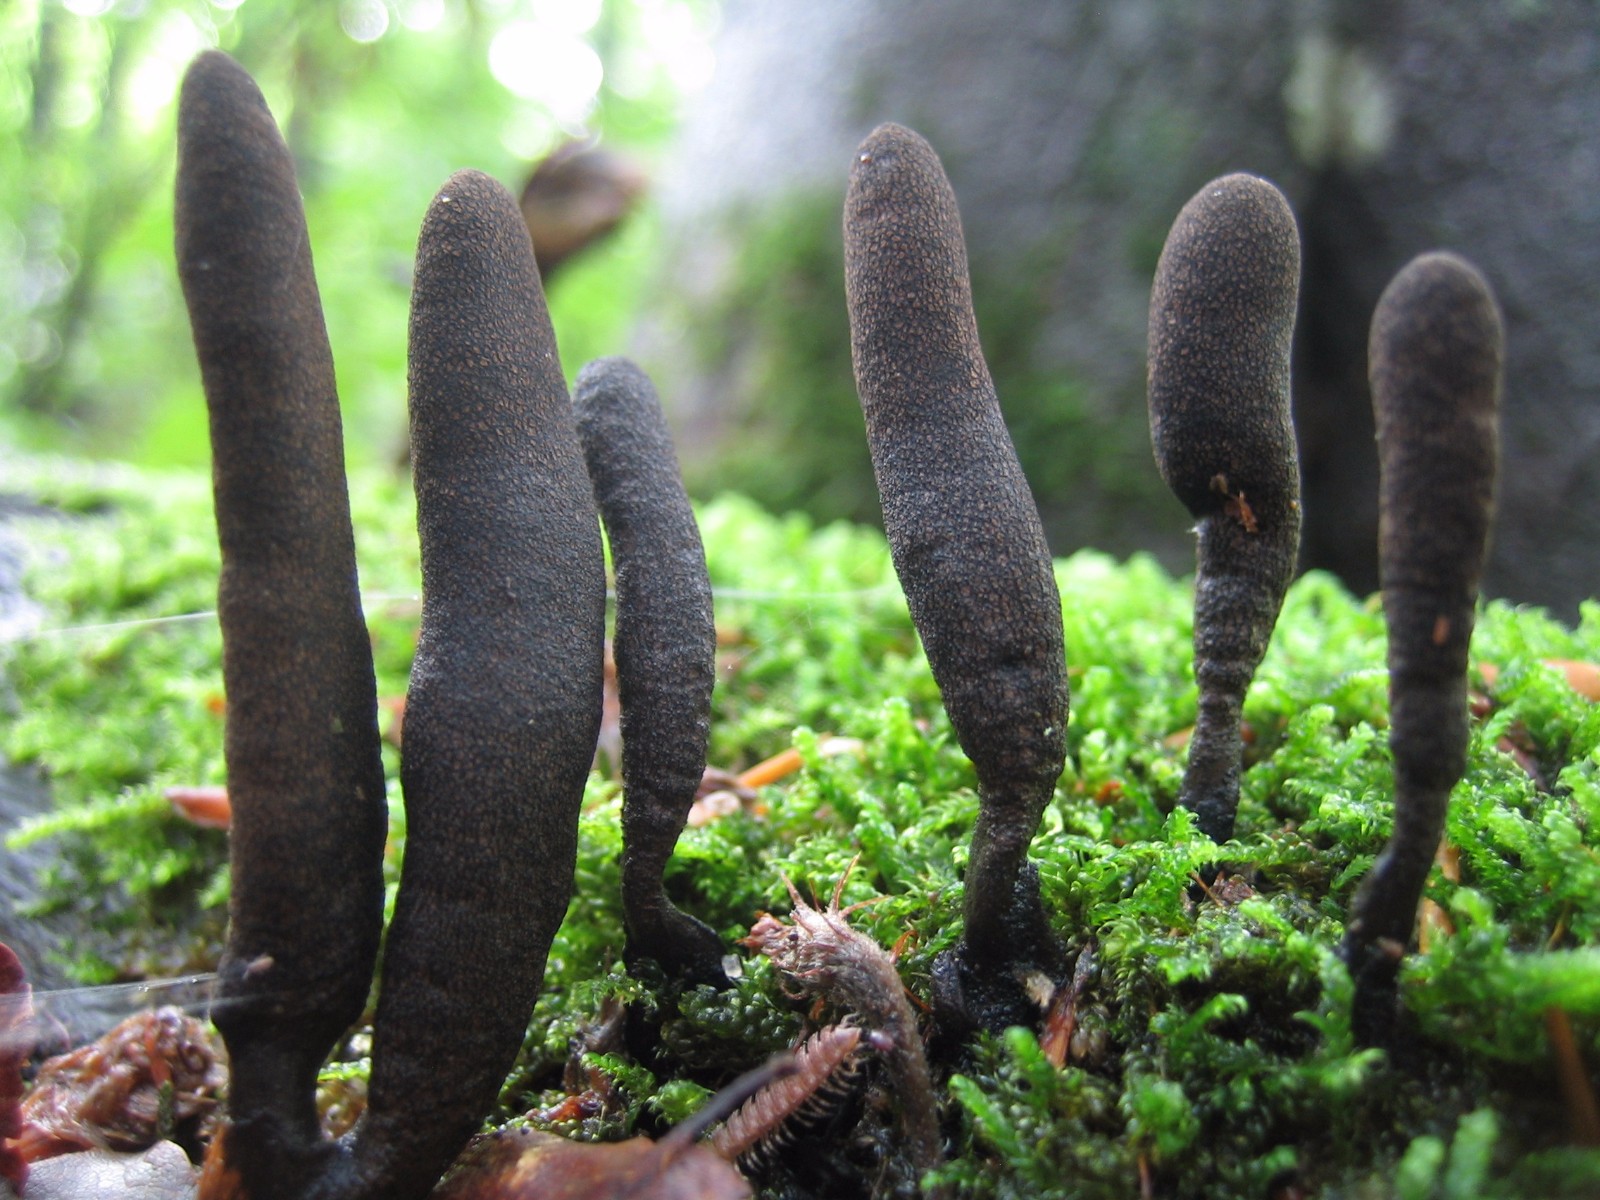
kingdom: Fungi
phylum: Ascomycota
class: Sordariomycetes
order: Xylariales
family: Xylariaceae
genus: Xylaria
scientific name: Xylaria longipes
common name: slank stødsvamp
